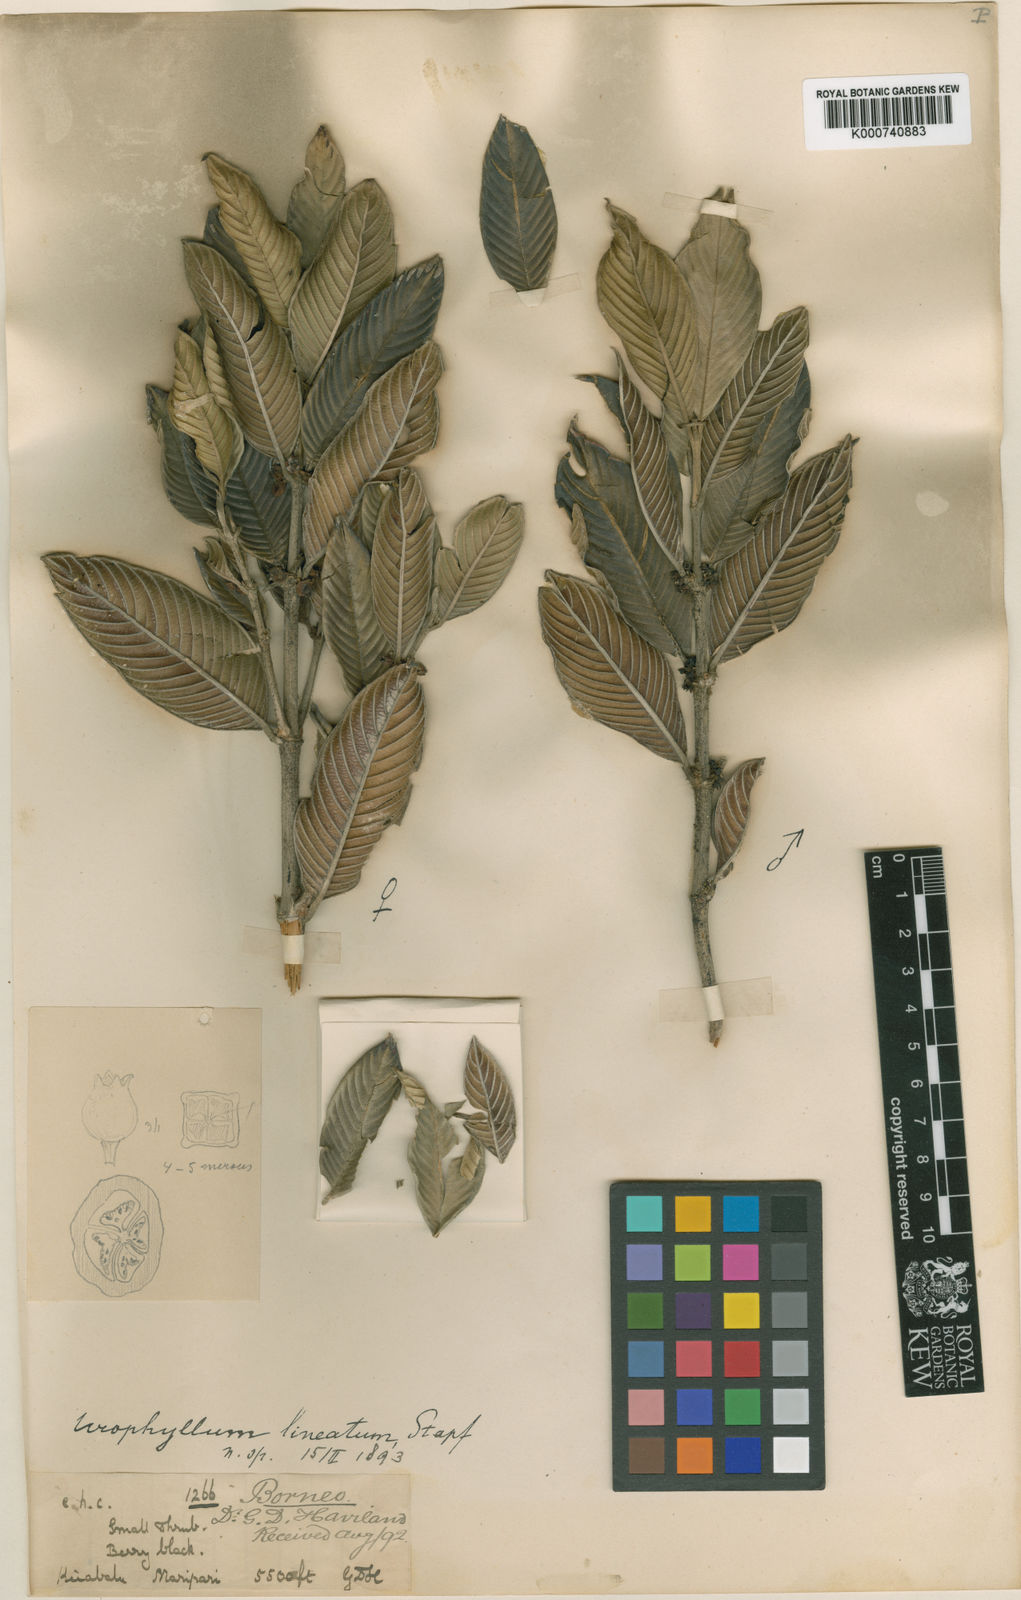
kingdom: Plantae
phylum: Tracheophyta
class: Magnoliopsida
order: Gentianales
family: Rubiaceae
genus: Urophyllum
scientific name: Urophyllum lineatum
